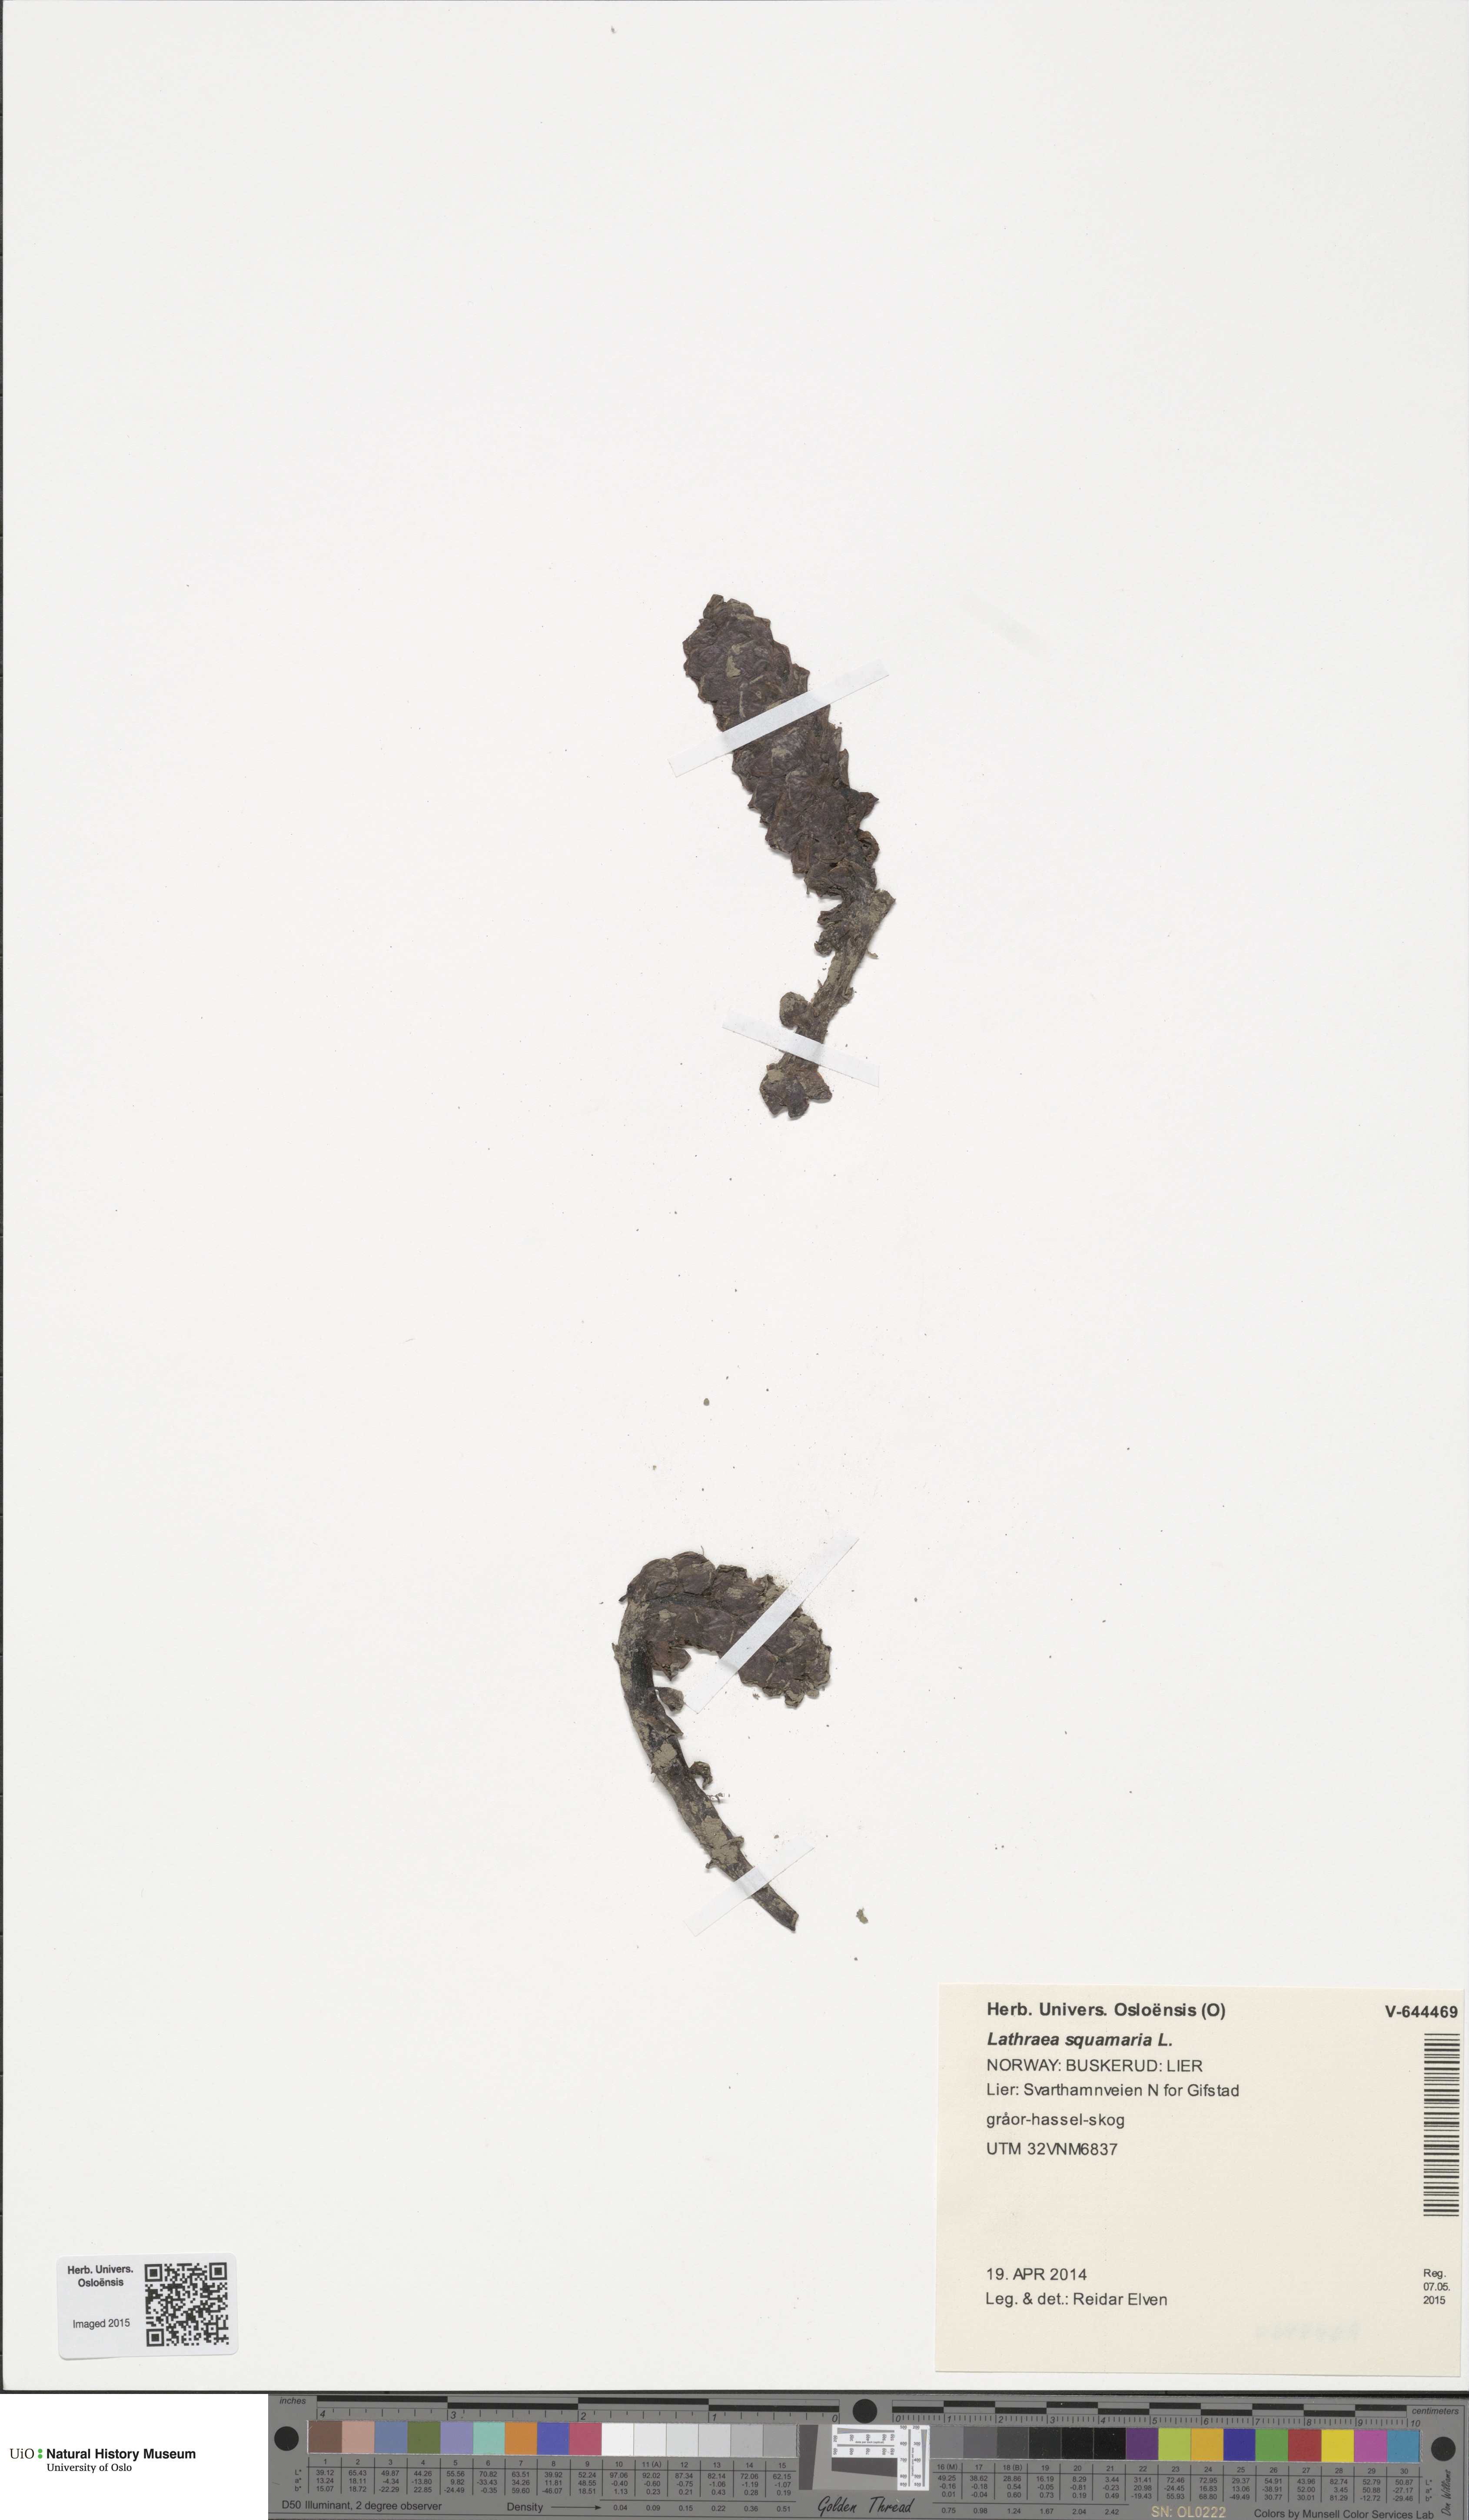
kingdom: Plantae
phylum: Tracheophyta
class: Magnoliopsida
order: Lamiales
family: Orobanchaceae
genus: Lathraea
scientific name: Lathraea squamaria
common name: Toothwort
